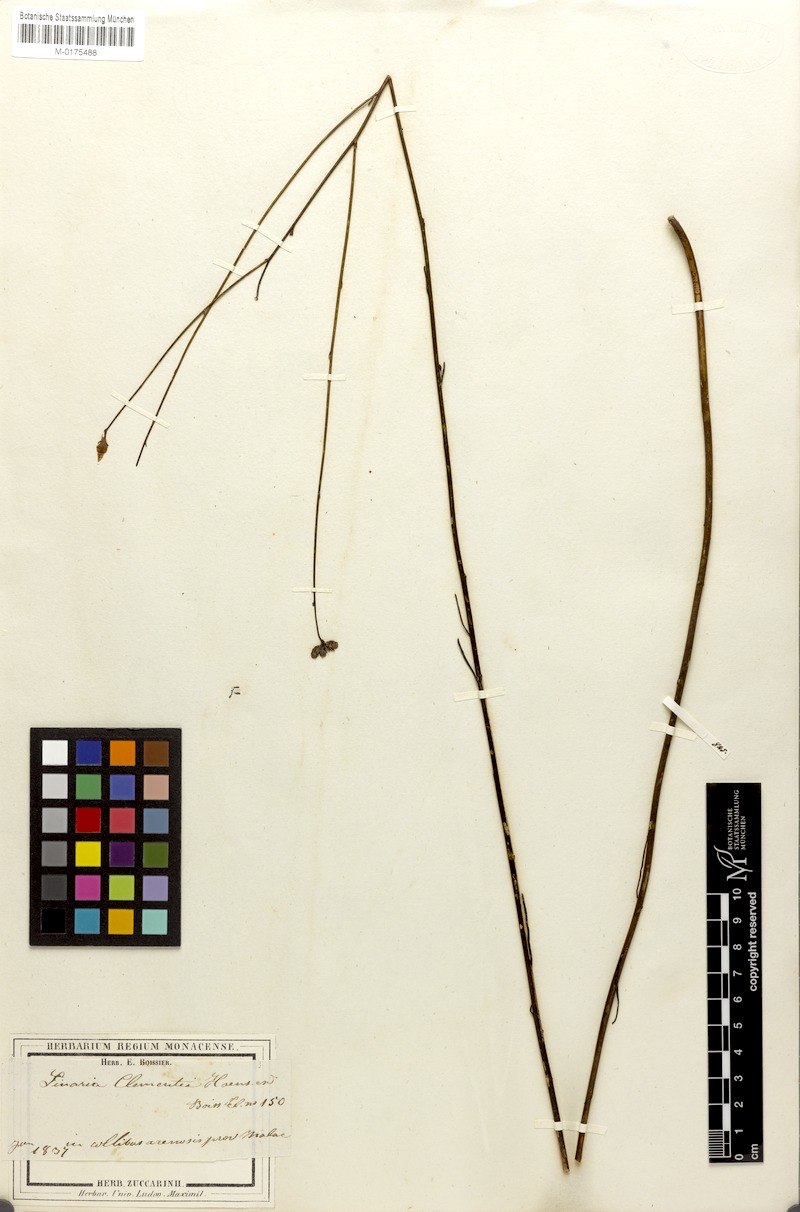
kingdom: Plantae
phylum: Tracheophyta
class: Magnoliopsida
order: Lamiales
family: Plantaginaceae
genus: Linaria
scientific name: Linaria clementei
